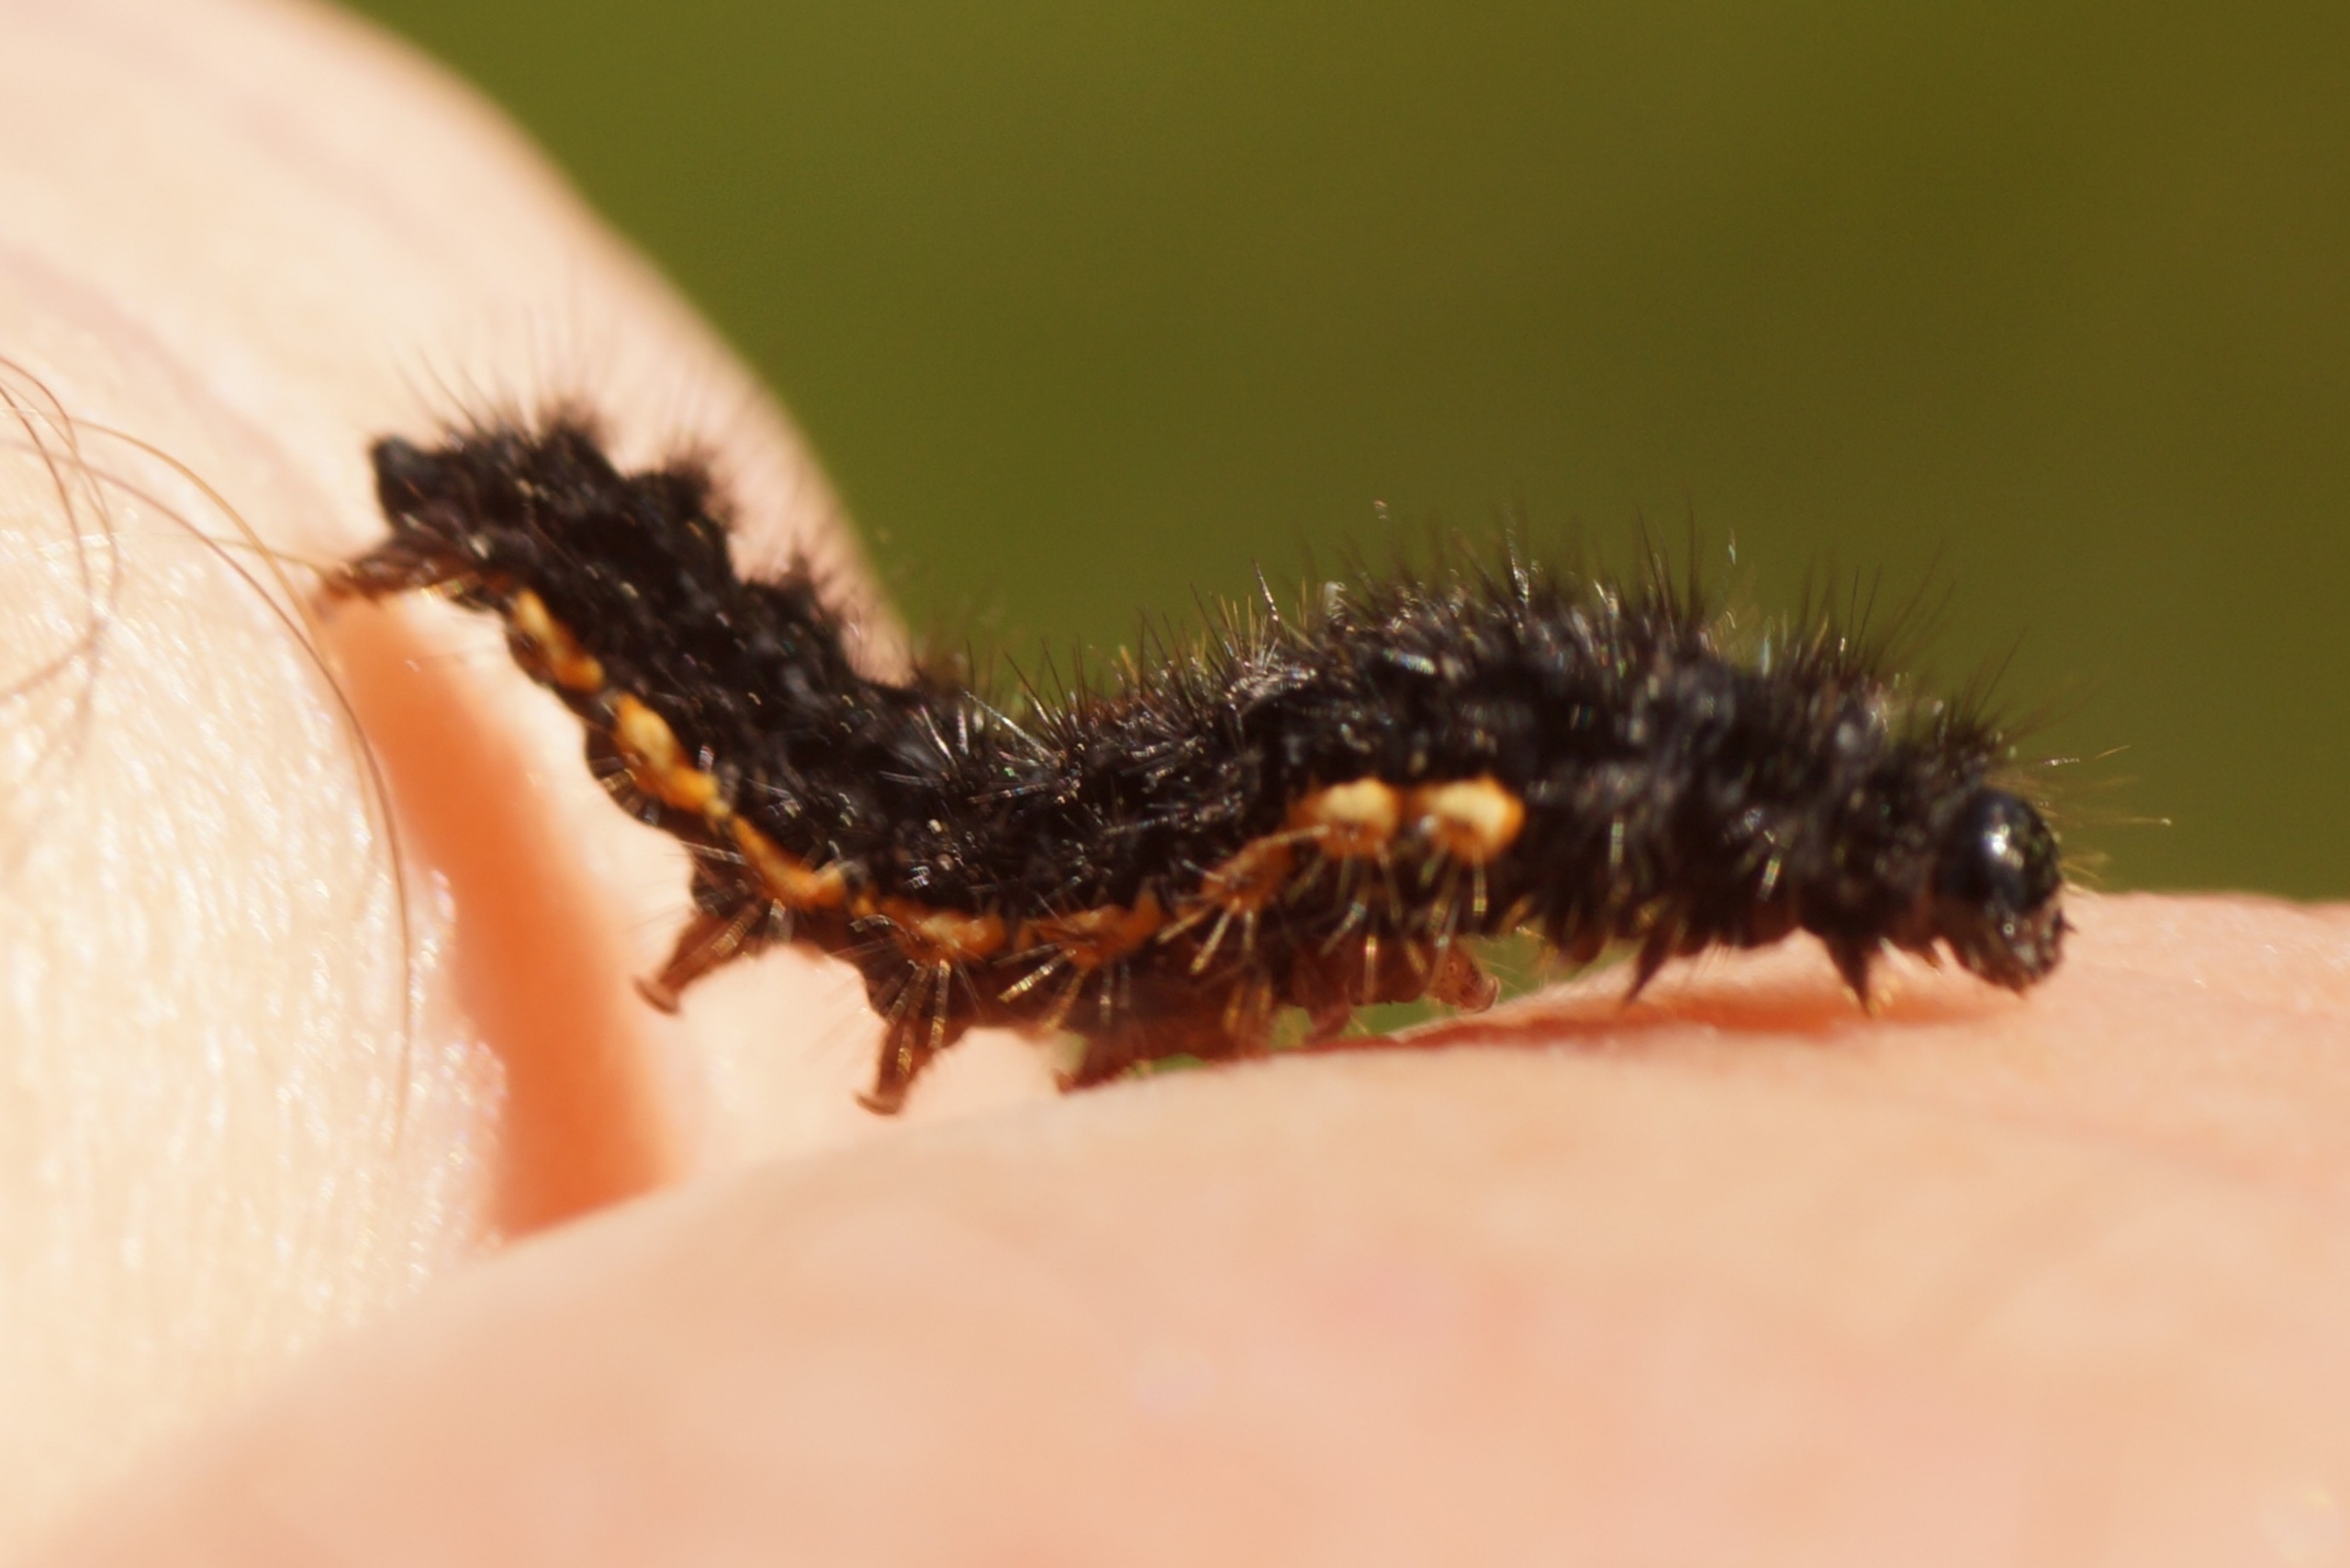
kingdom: Animalia
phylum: Arthropoda
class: Insecta
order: Lepidoptera
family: Erebidae
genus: Nyea
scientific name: Nyea lurideola
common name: Blygrå lavspinder
